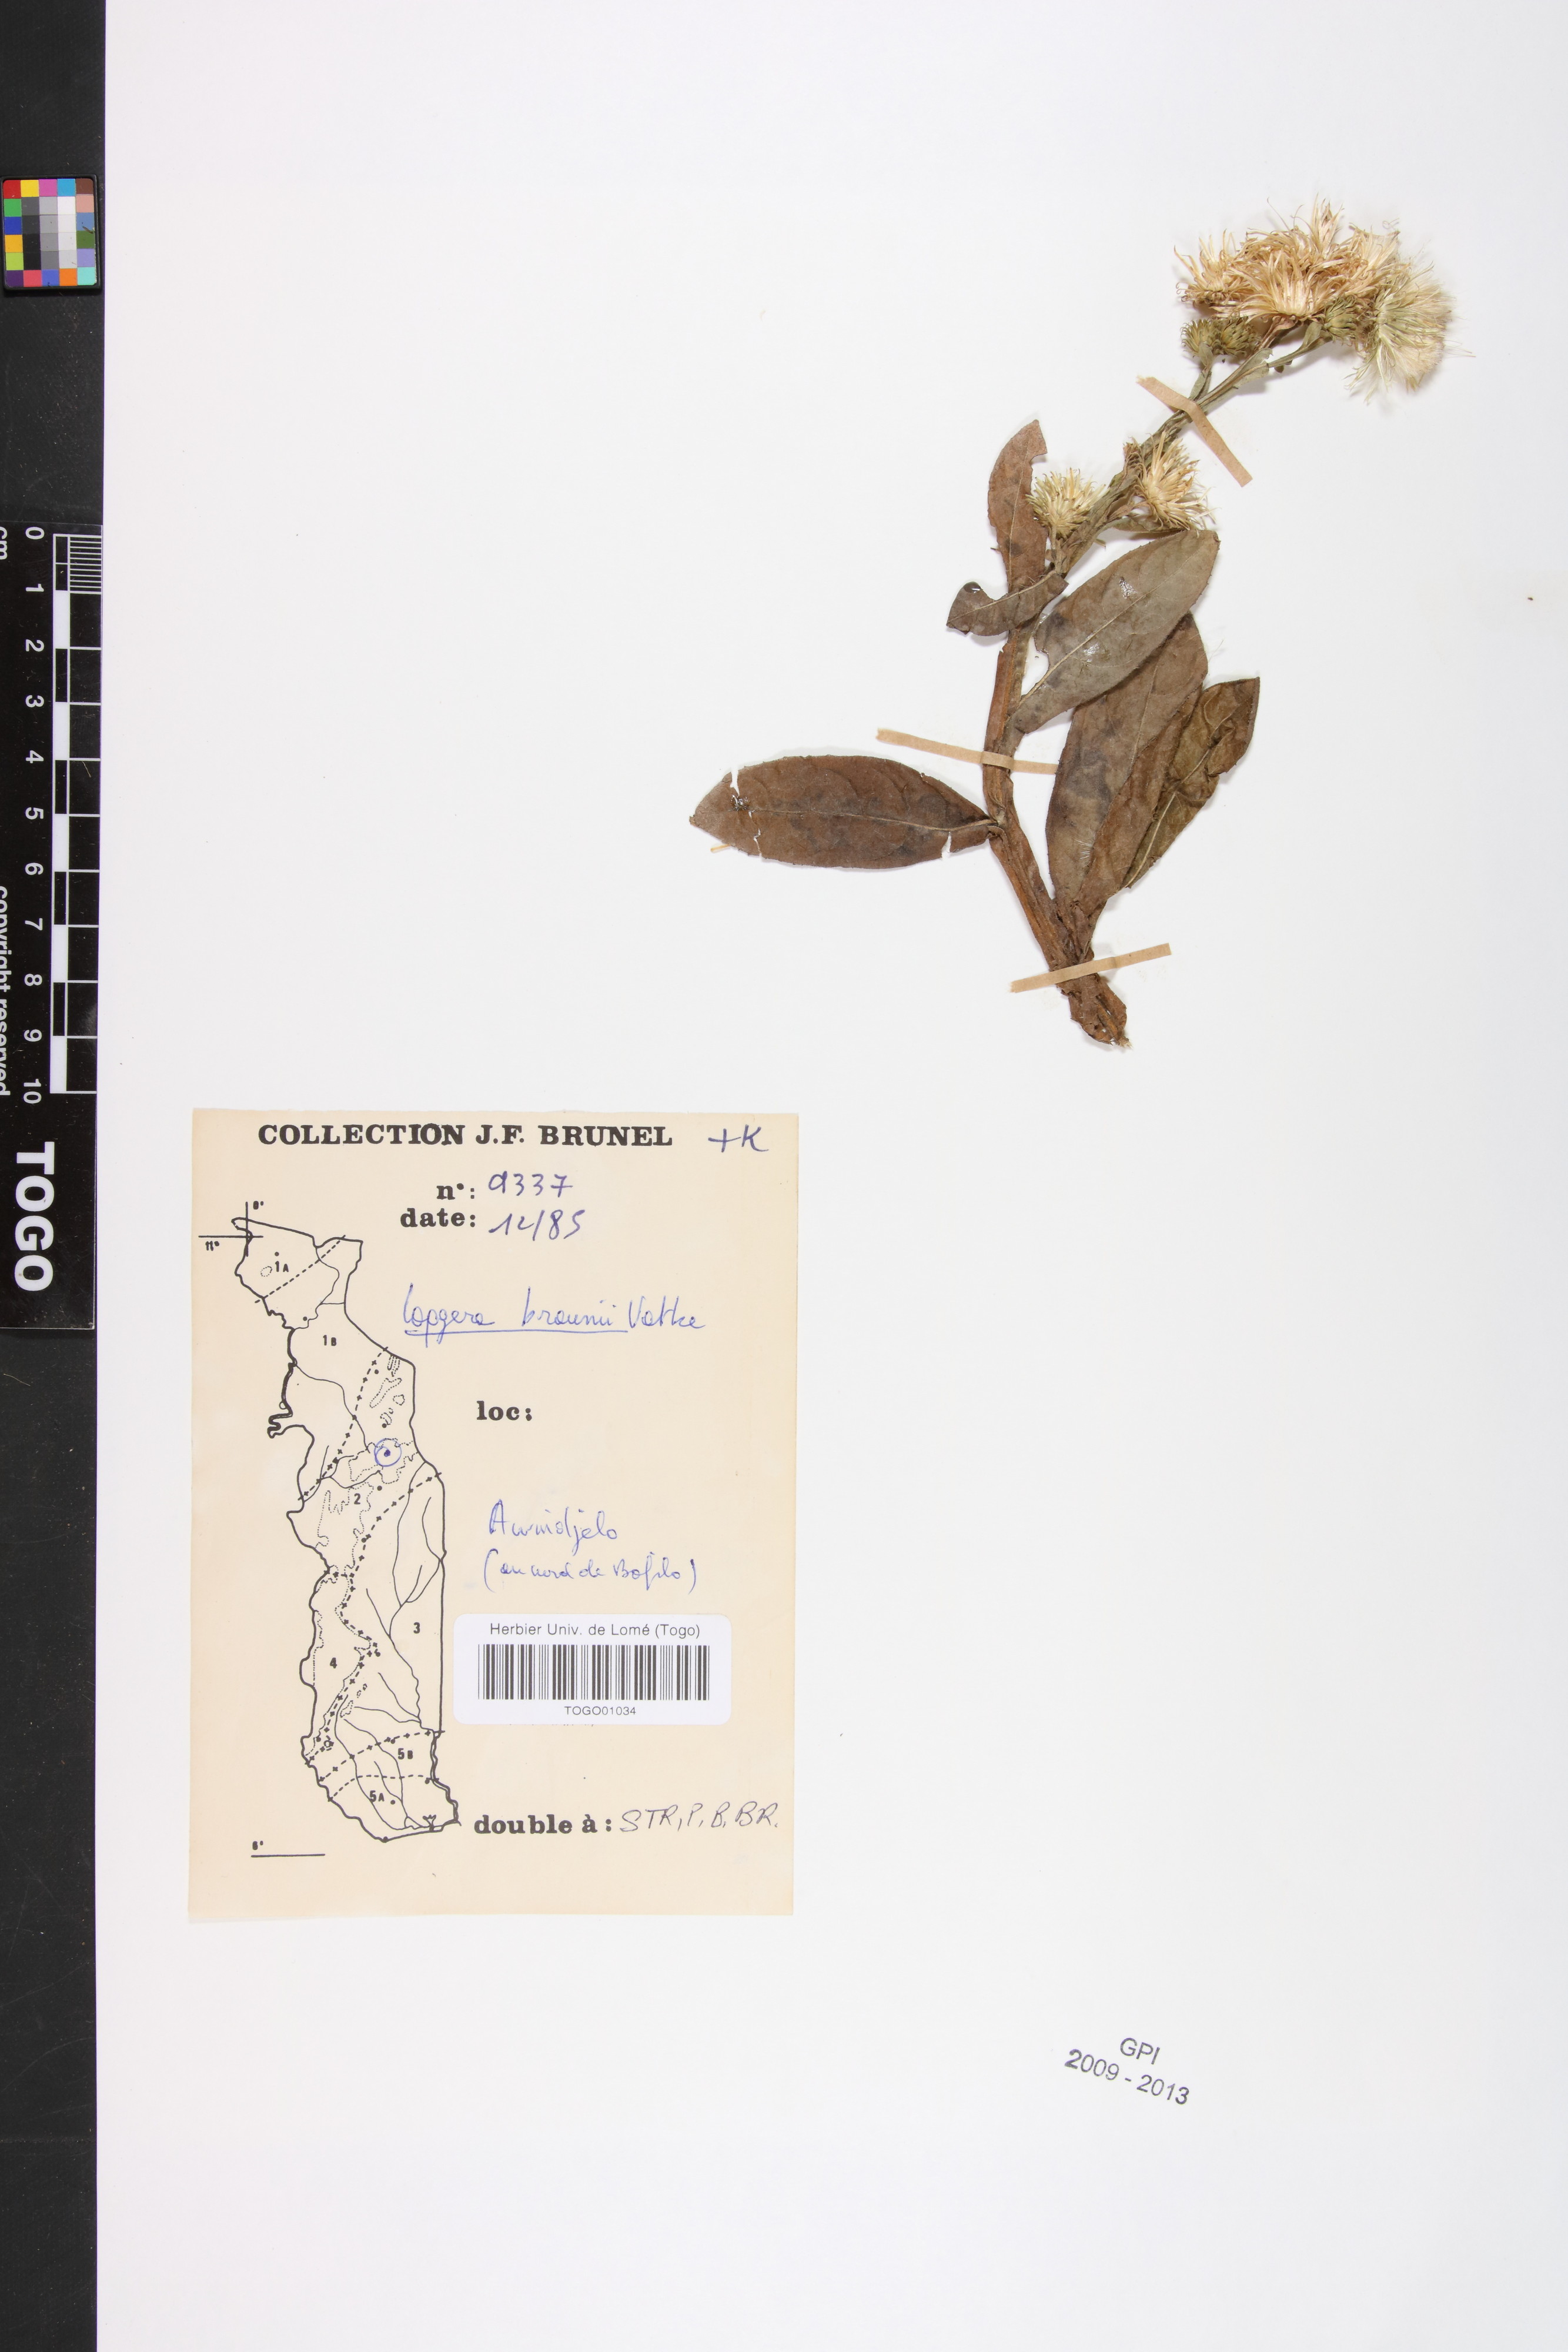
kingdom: Plantae
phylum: Tracheophyta
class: Magnoliopsida
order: Asterales
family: Asteraceae
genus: Laggera
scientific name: Laggera braunii
